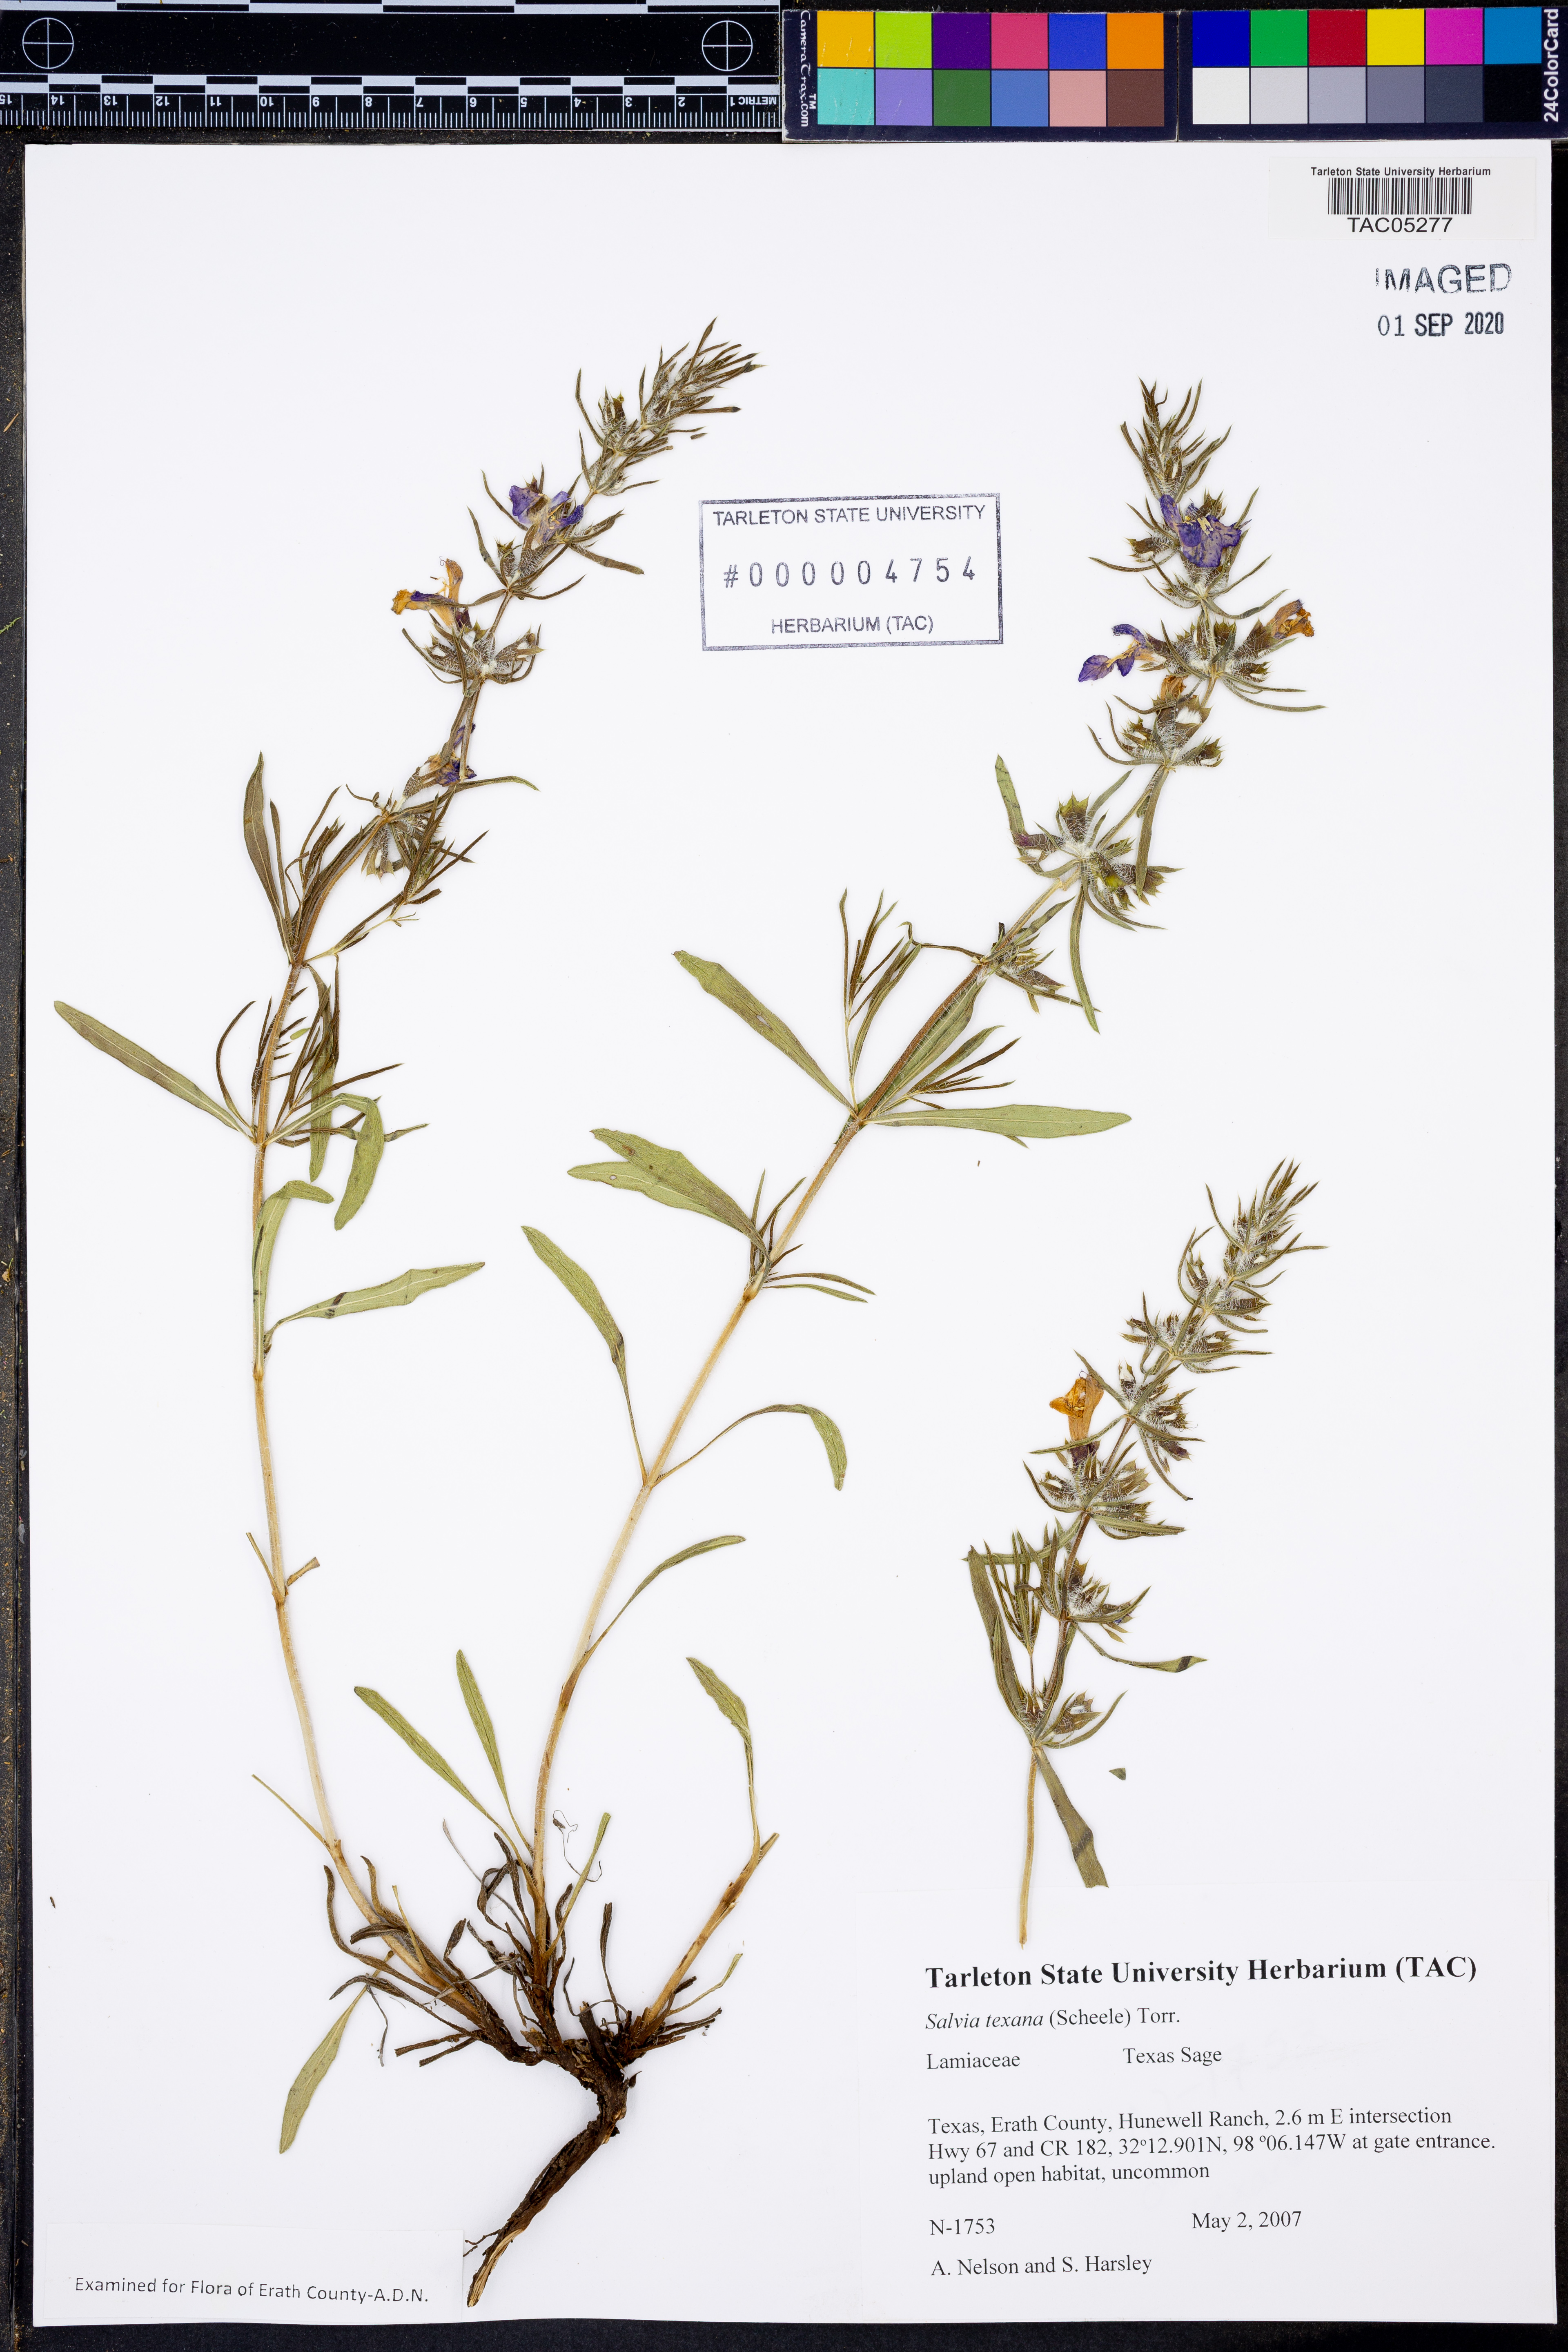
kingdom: Plantae
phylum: Tracheophyta
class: Magnoliopsida
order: Lamiales
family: Lamiaceae
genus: Salvia
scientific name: Salvia texana
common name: Texas sage
